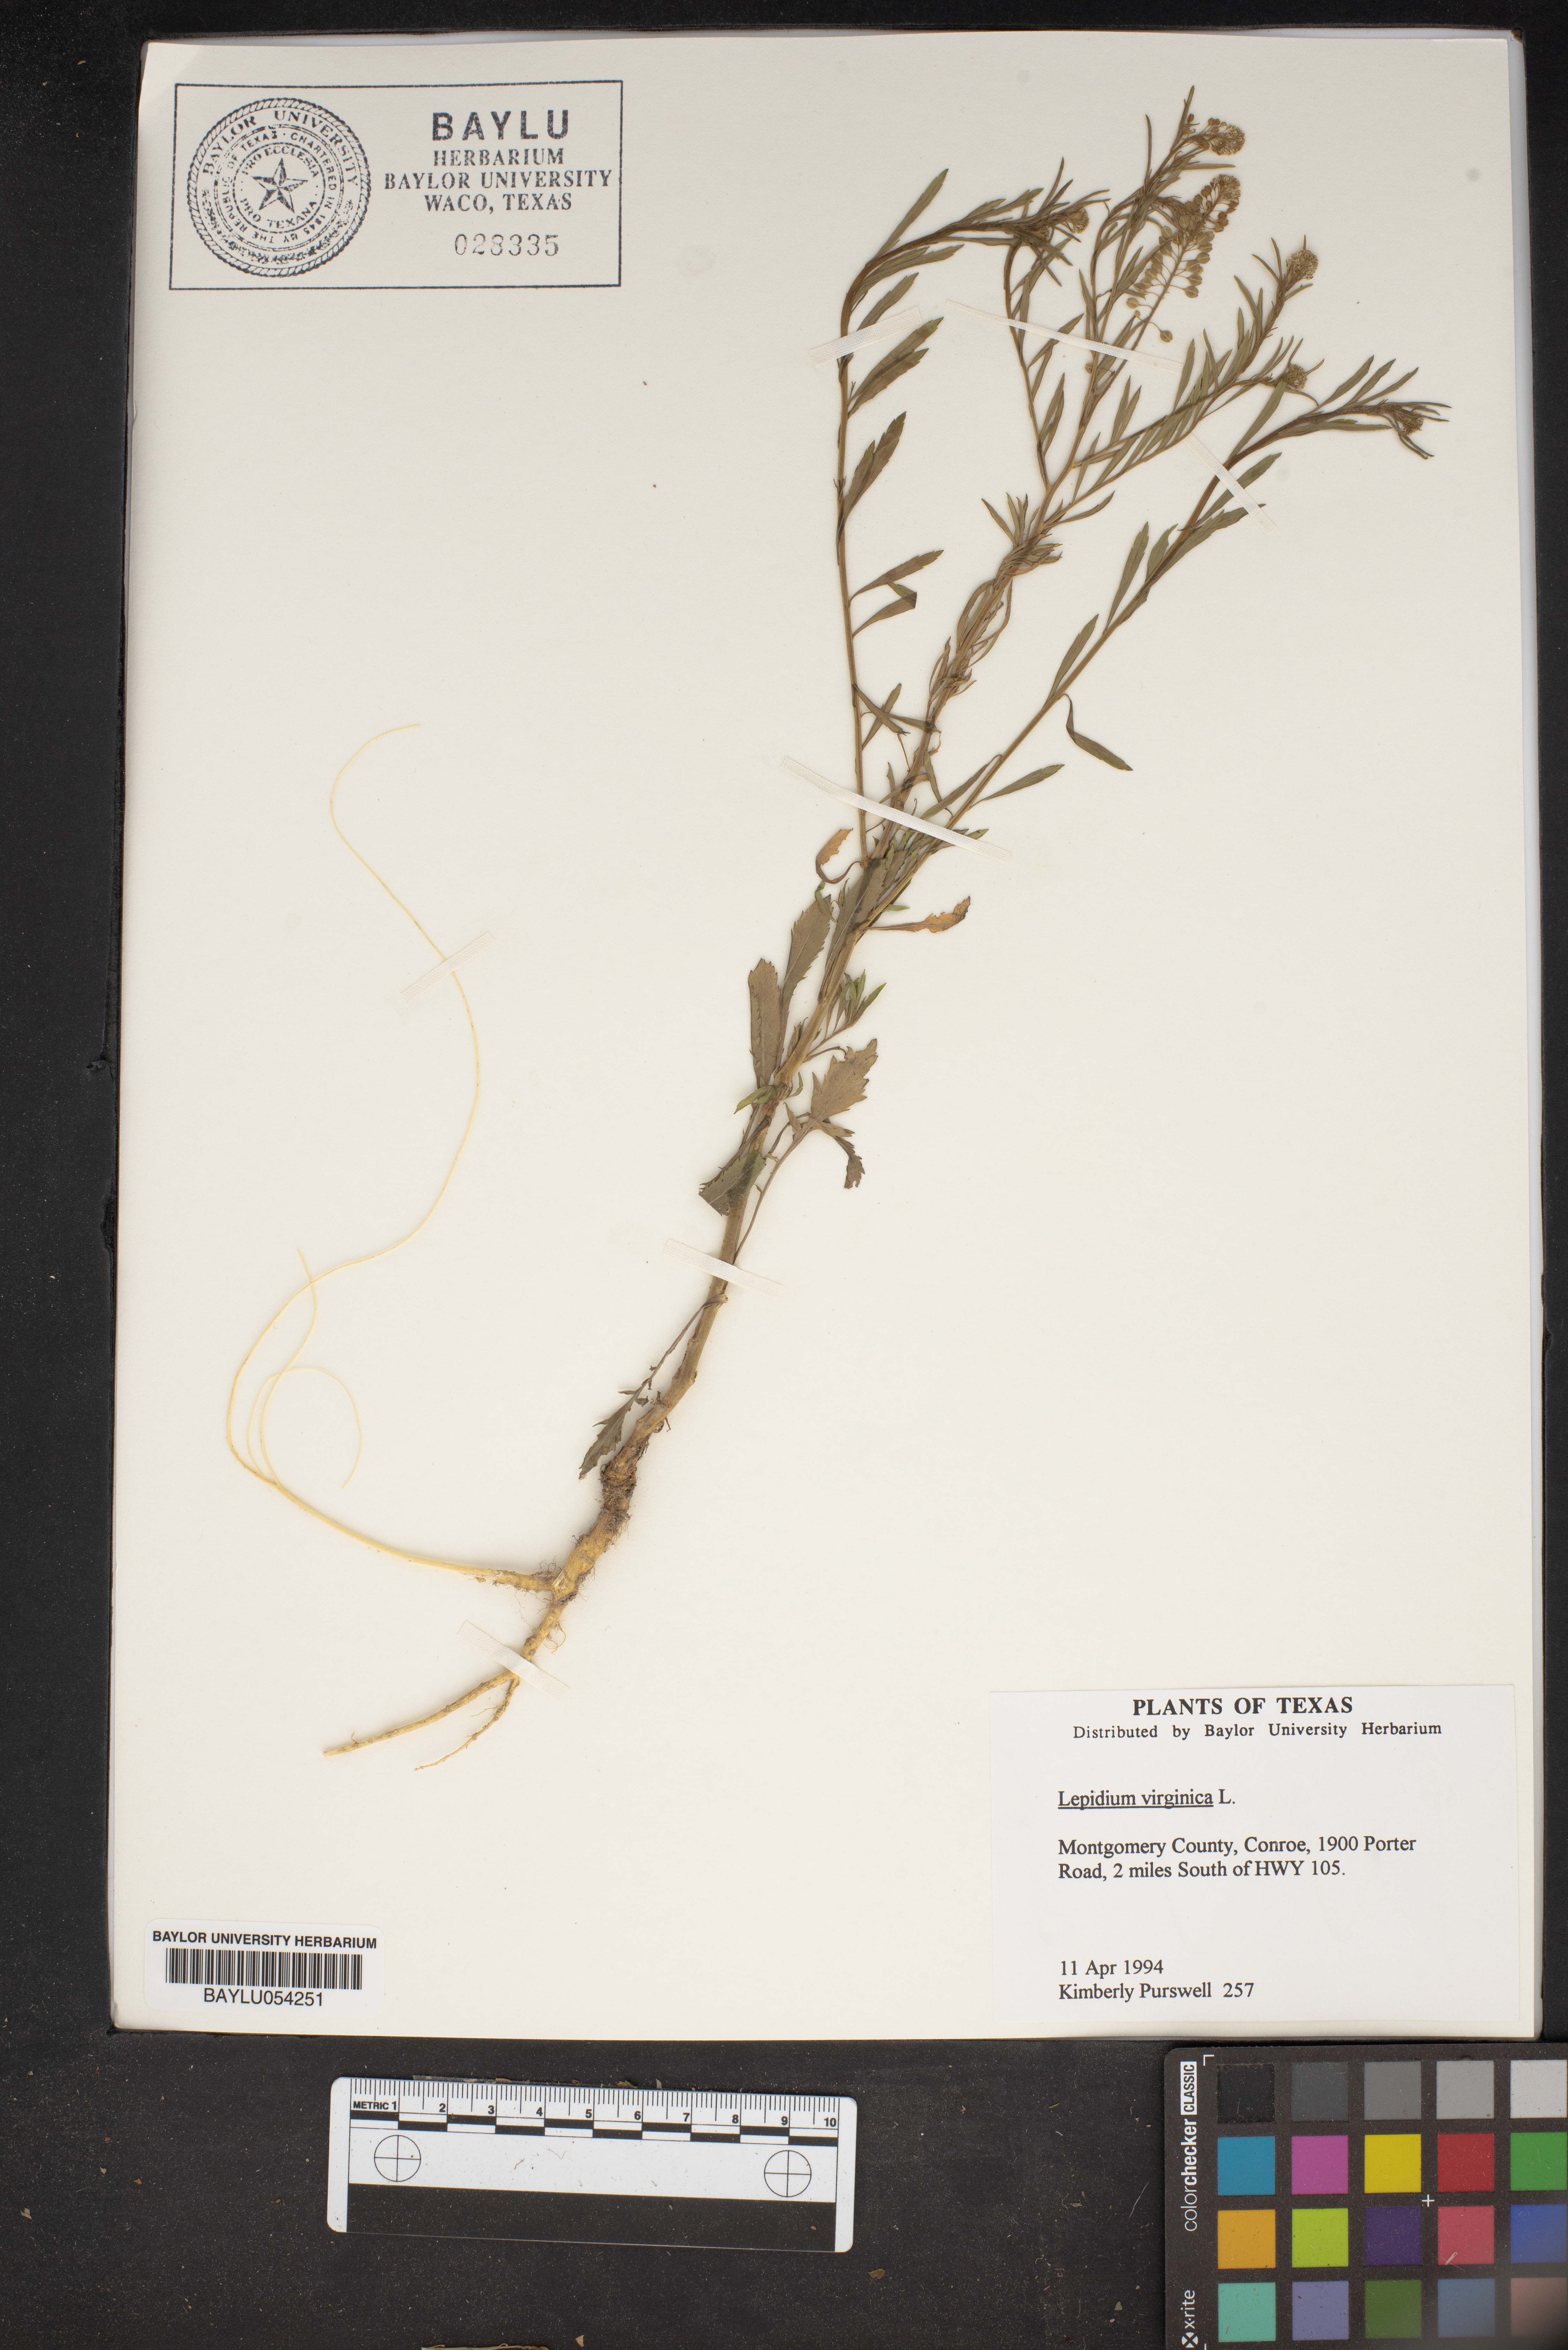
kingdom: Plantae
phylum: Tracheophyta
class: Magnoliopsida
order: Brassicales
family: Brassicaceae
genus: Lepidium
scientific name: Lepidium virginicum
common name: Least pepperwort
